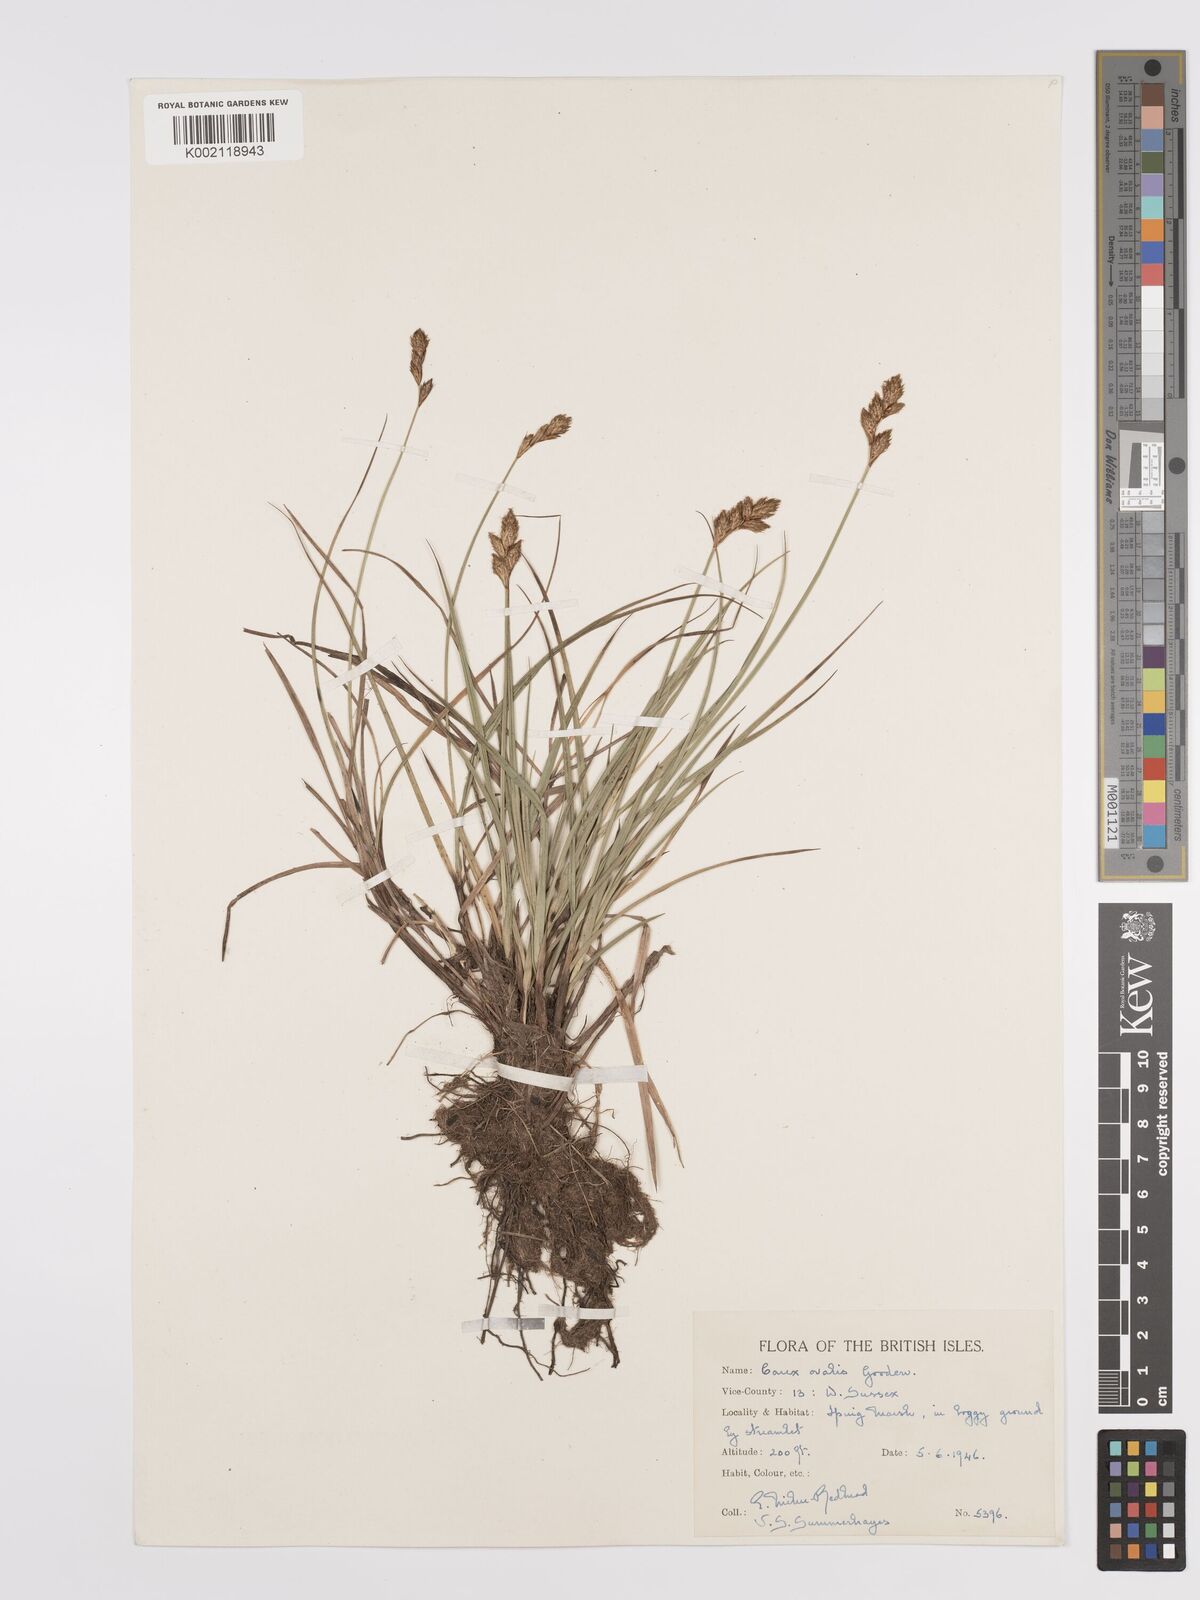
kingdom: Plantae
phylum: Tracheophyta
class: Liliopsida
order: Poales
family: Cyperaceae
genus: Carex
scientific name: Carex leporina
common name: Oval sedge
